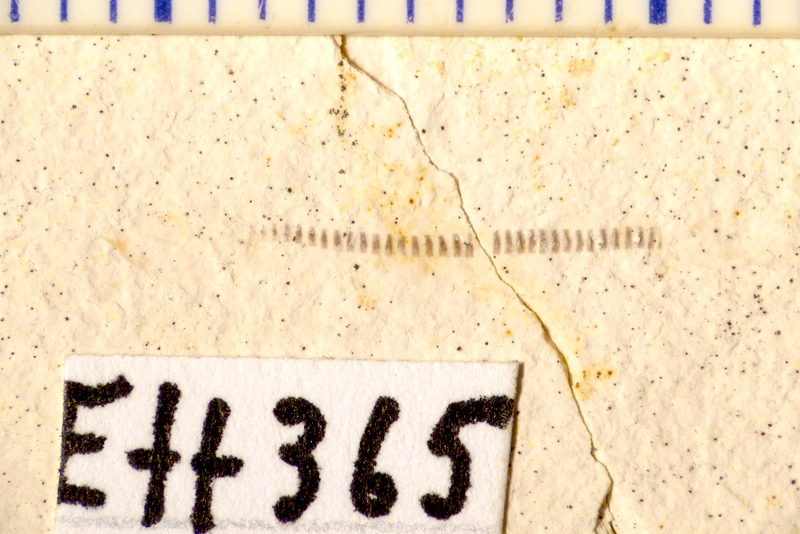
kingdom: Animalia
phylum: Chordata
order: Salmoniformes
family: Orthogonikleithridae
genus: Orthogonikleithrus
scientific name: Orthogonikleithrus hoelli
